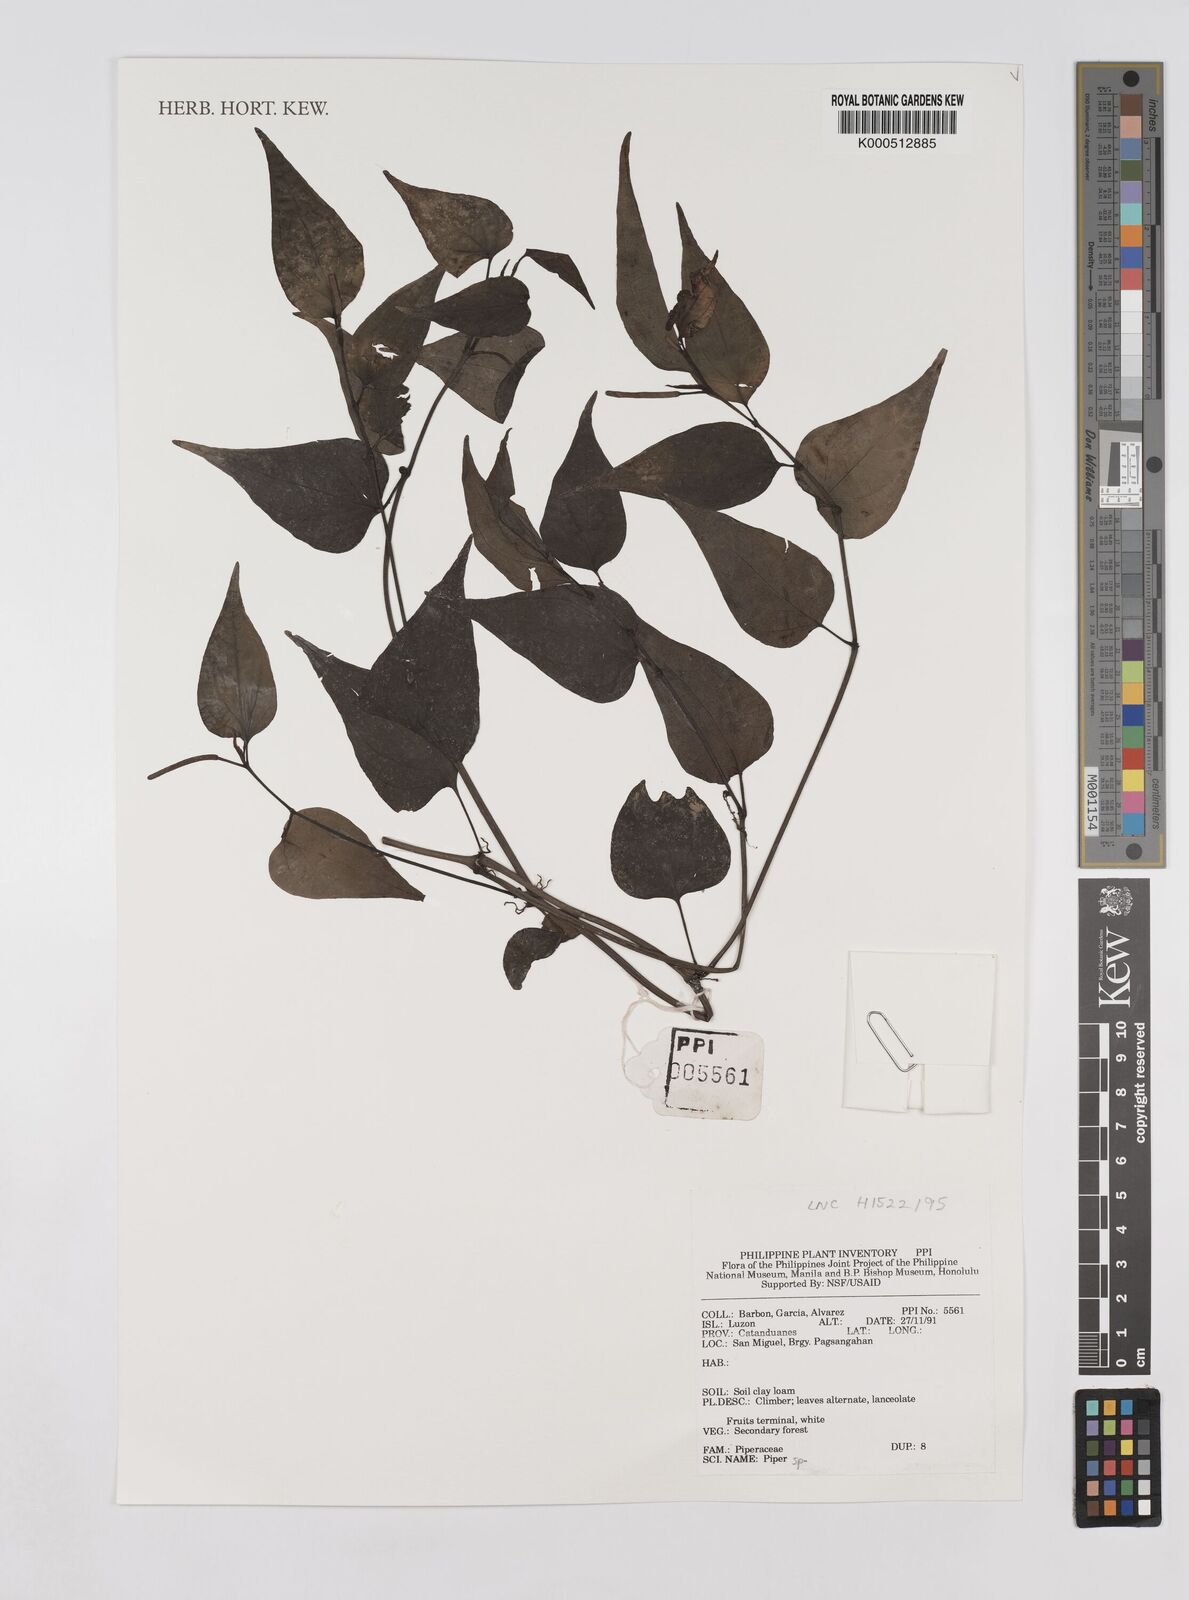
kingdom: Plantae
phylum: Tracheophyta
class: Magnoliopsida
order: Piperales
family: Piperaceae
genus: Piper
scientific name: Piper
